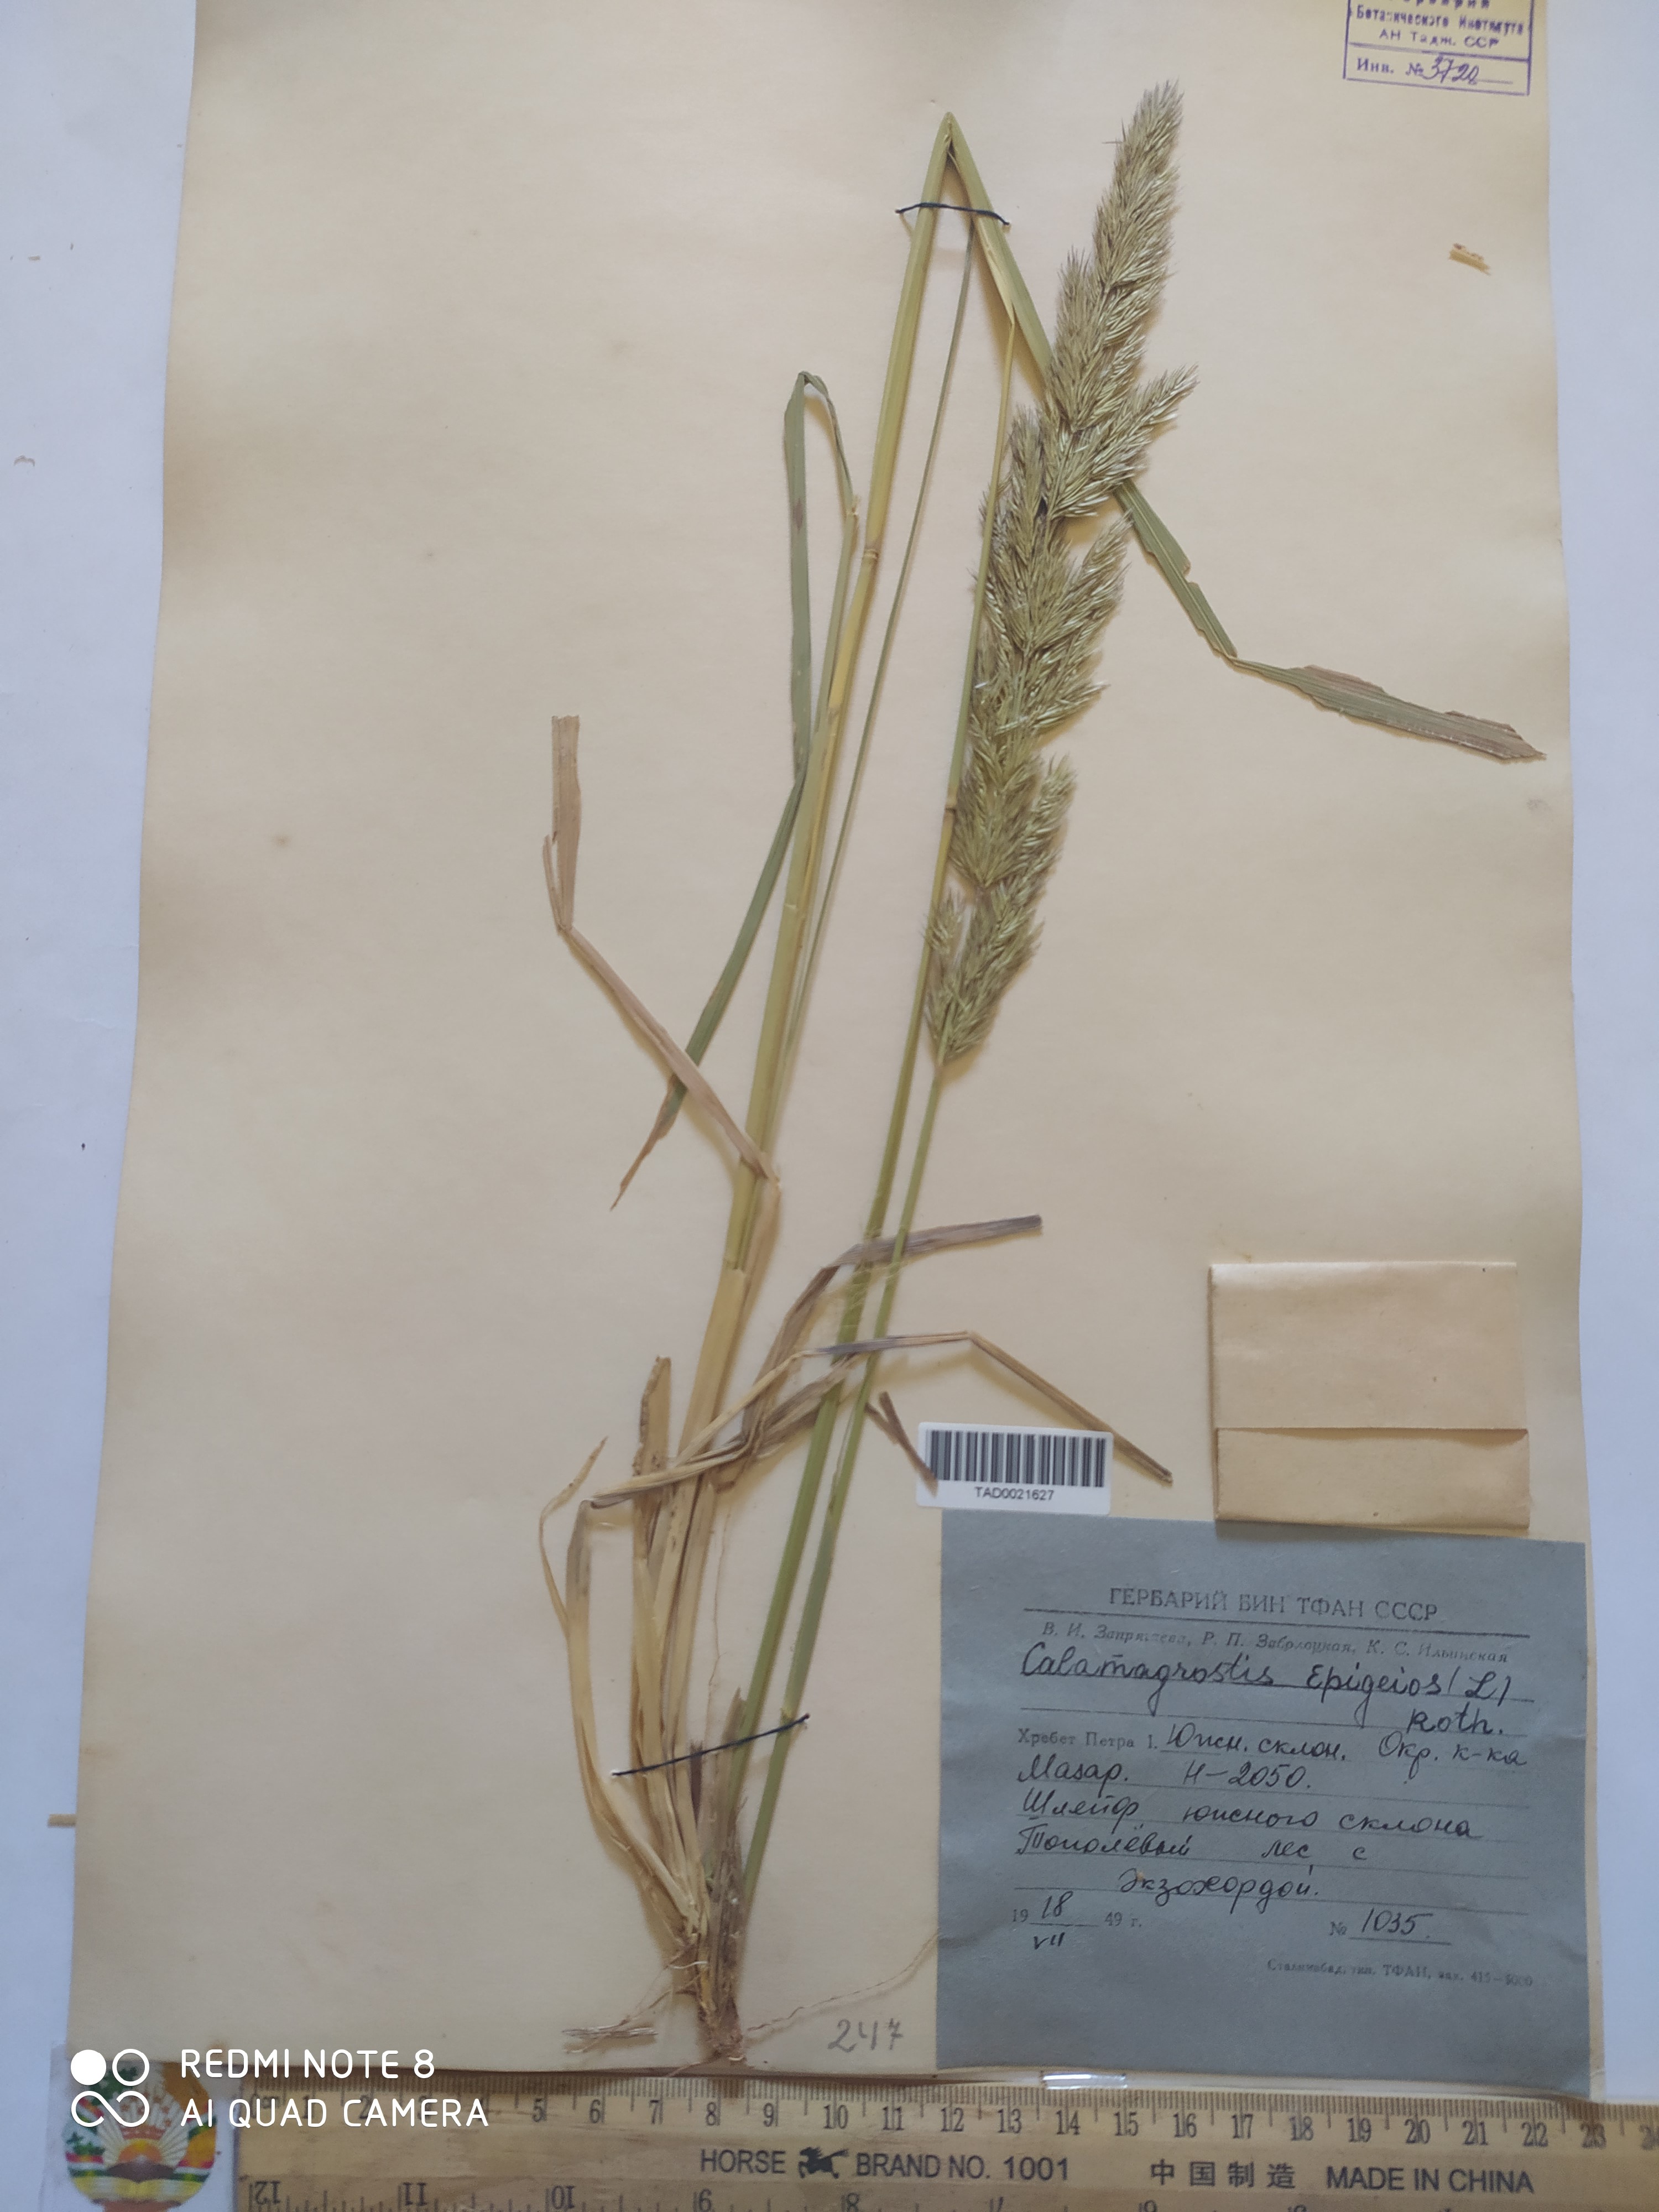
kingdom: Plantae
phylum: Tracheophyta
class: Liliopsida
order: Poales
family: Poaceae
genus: Calamagrostis
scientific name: Calamagrostis epigejos
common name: Wood small-reed
